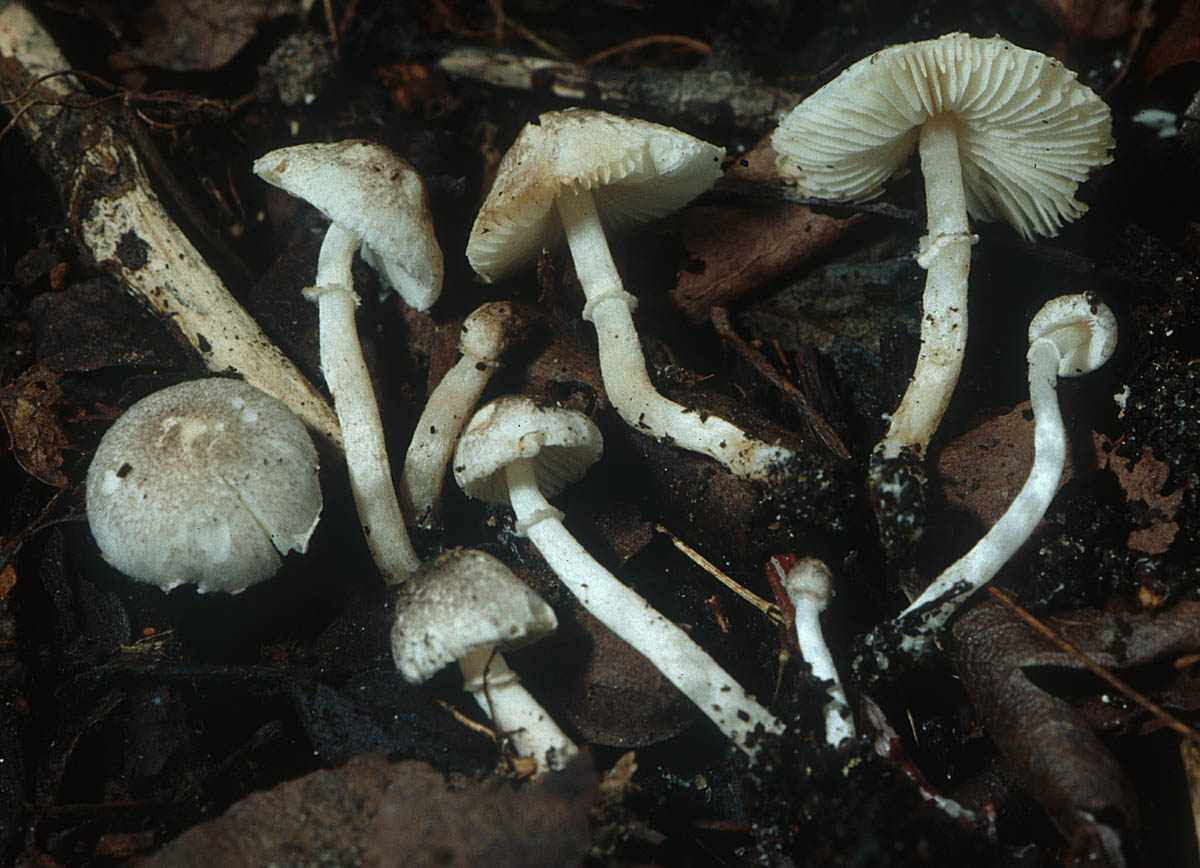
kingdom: Fungi
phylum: Basidiomycota
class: Agaricomycetes
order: Agaricales
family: Agaricaceae
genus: Leucoagaricus
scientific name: Leucoagaricus melanotrichus
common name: gråhåret silkehat
